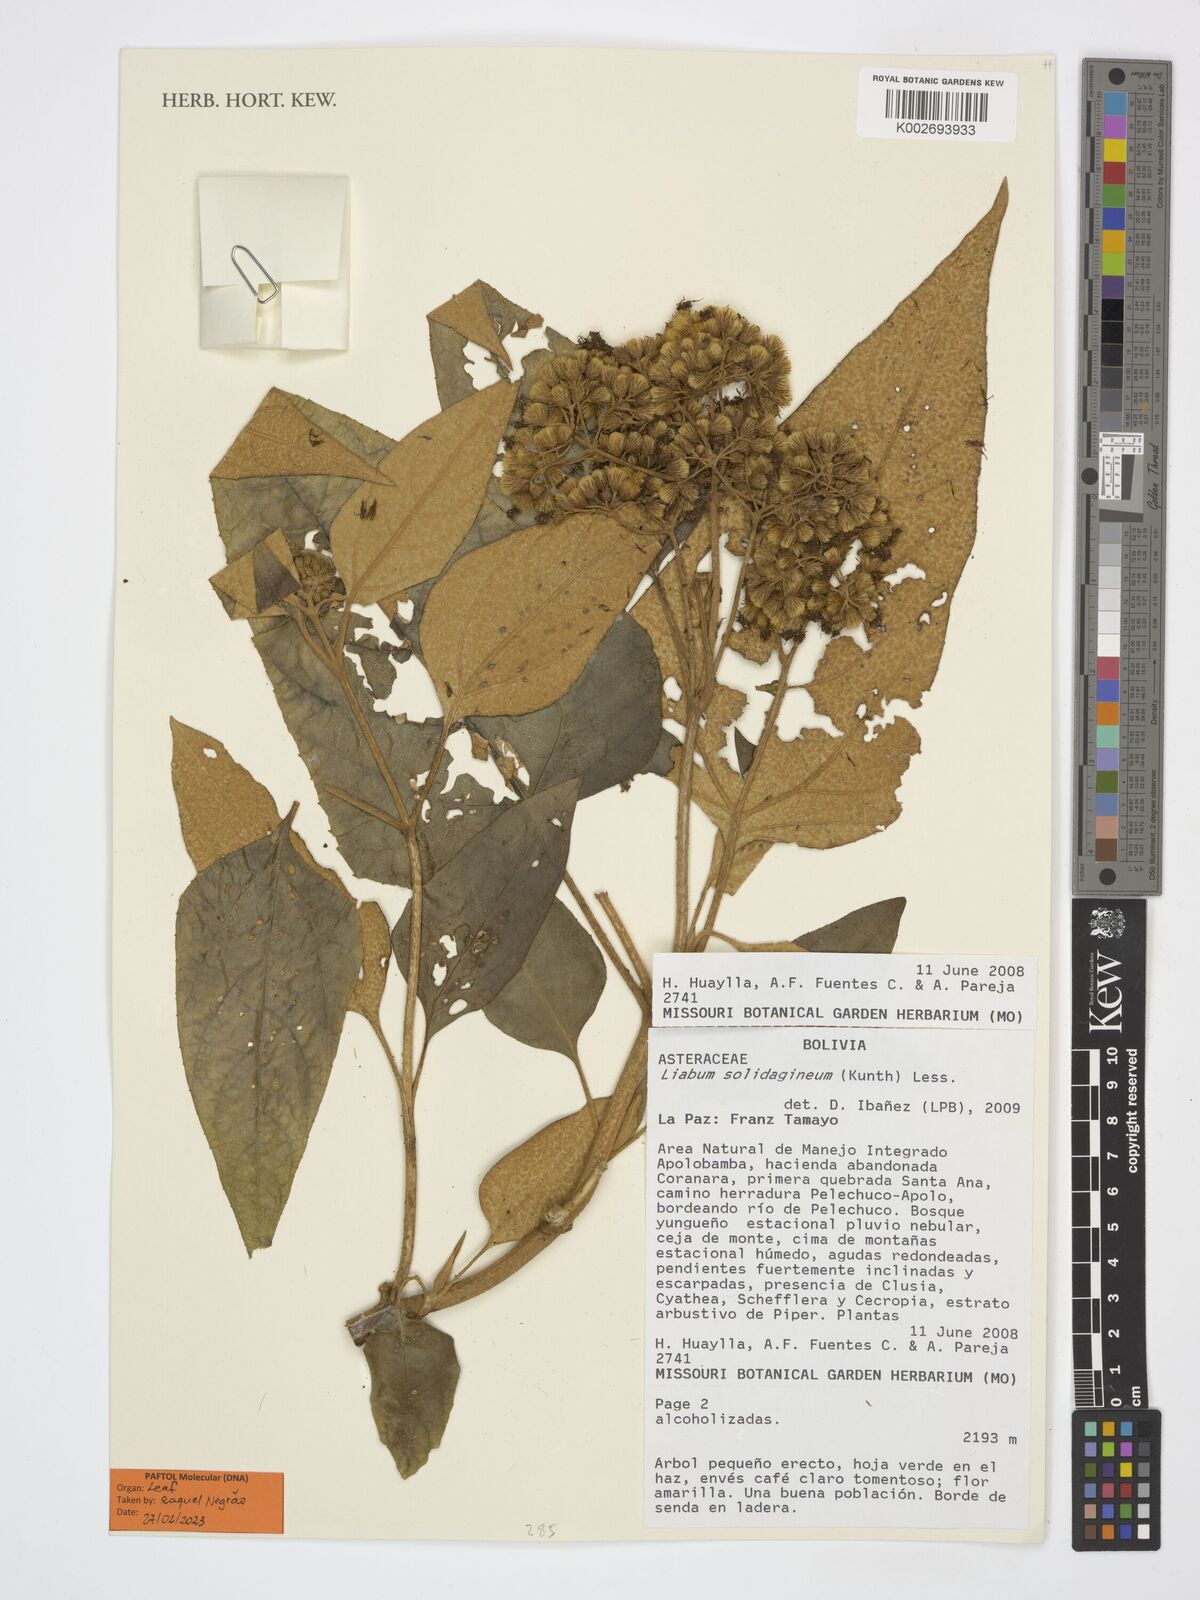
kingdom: Plantae
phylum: Tracheophyta
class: Magnoliopsida
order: Asterales
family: Asteraceae
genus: Liabum
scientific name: Liabum solidagineum
